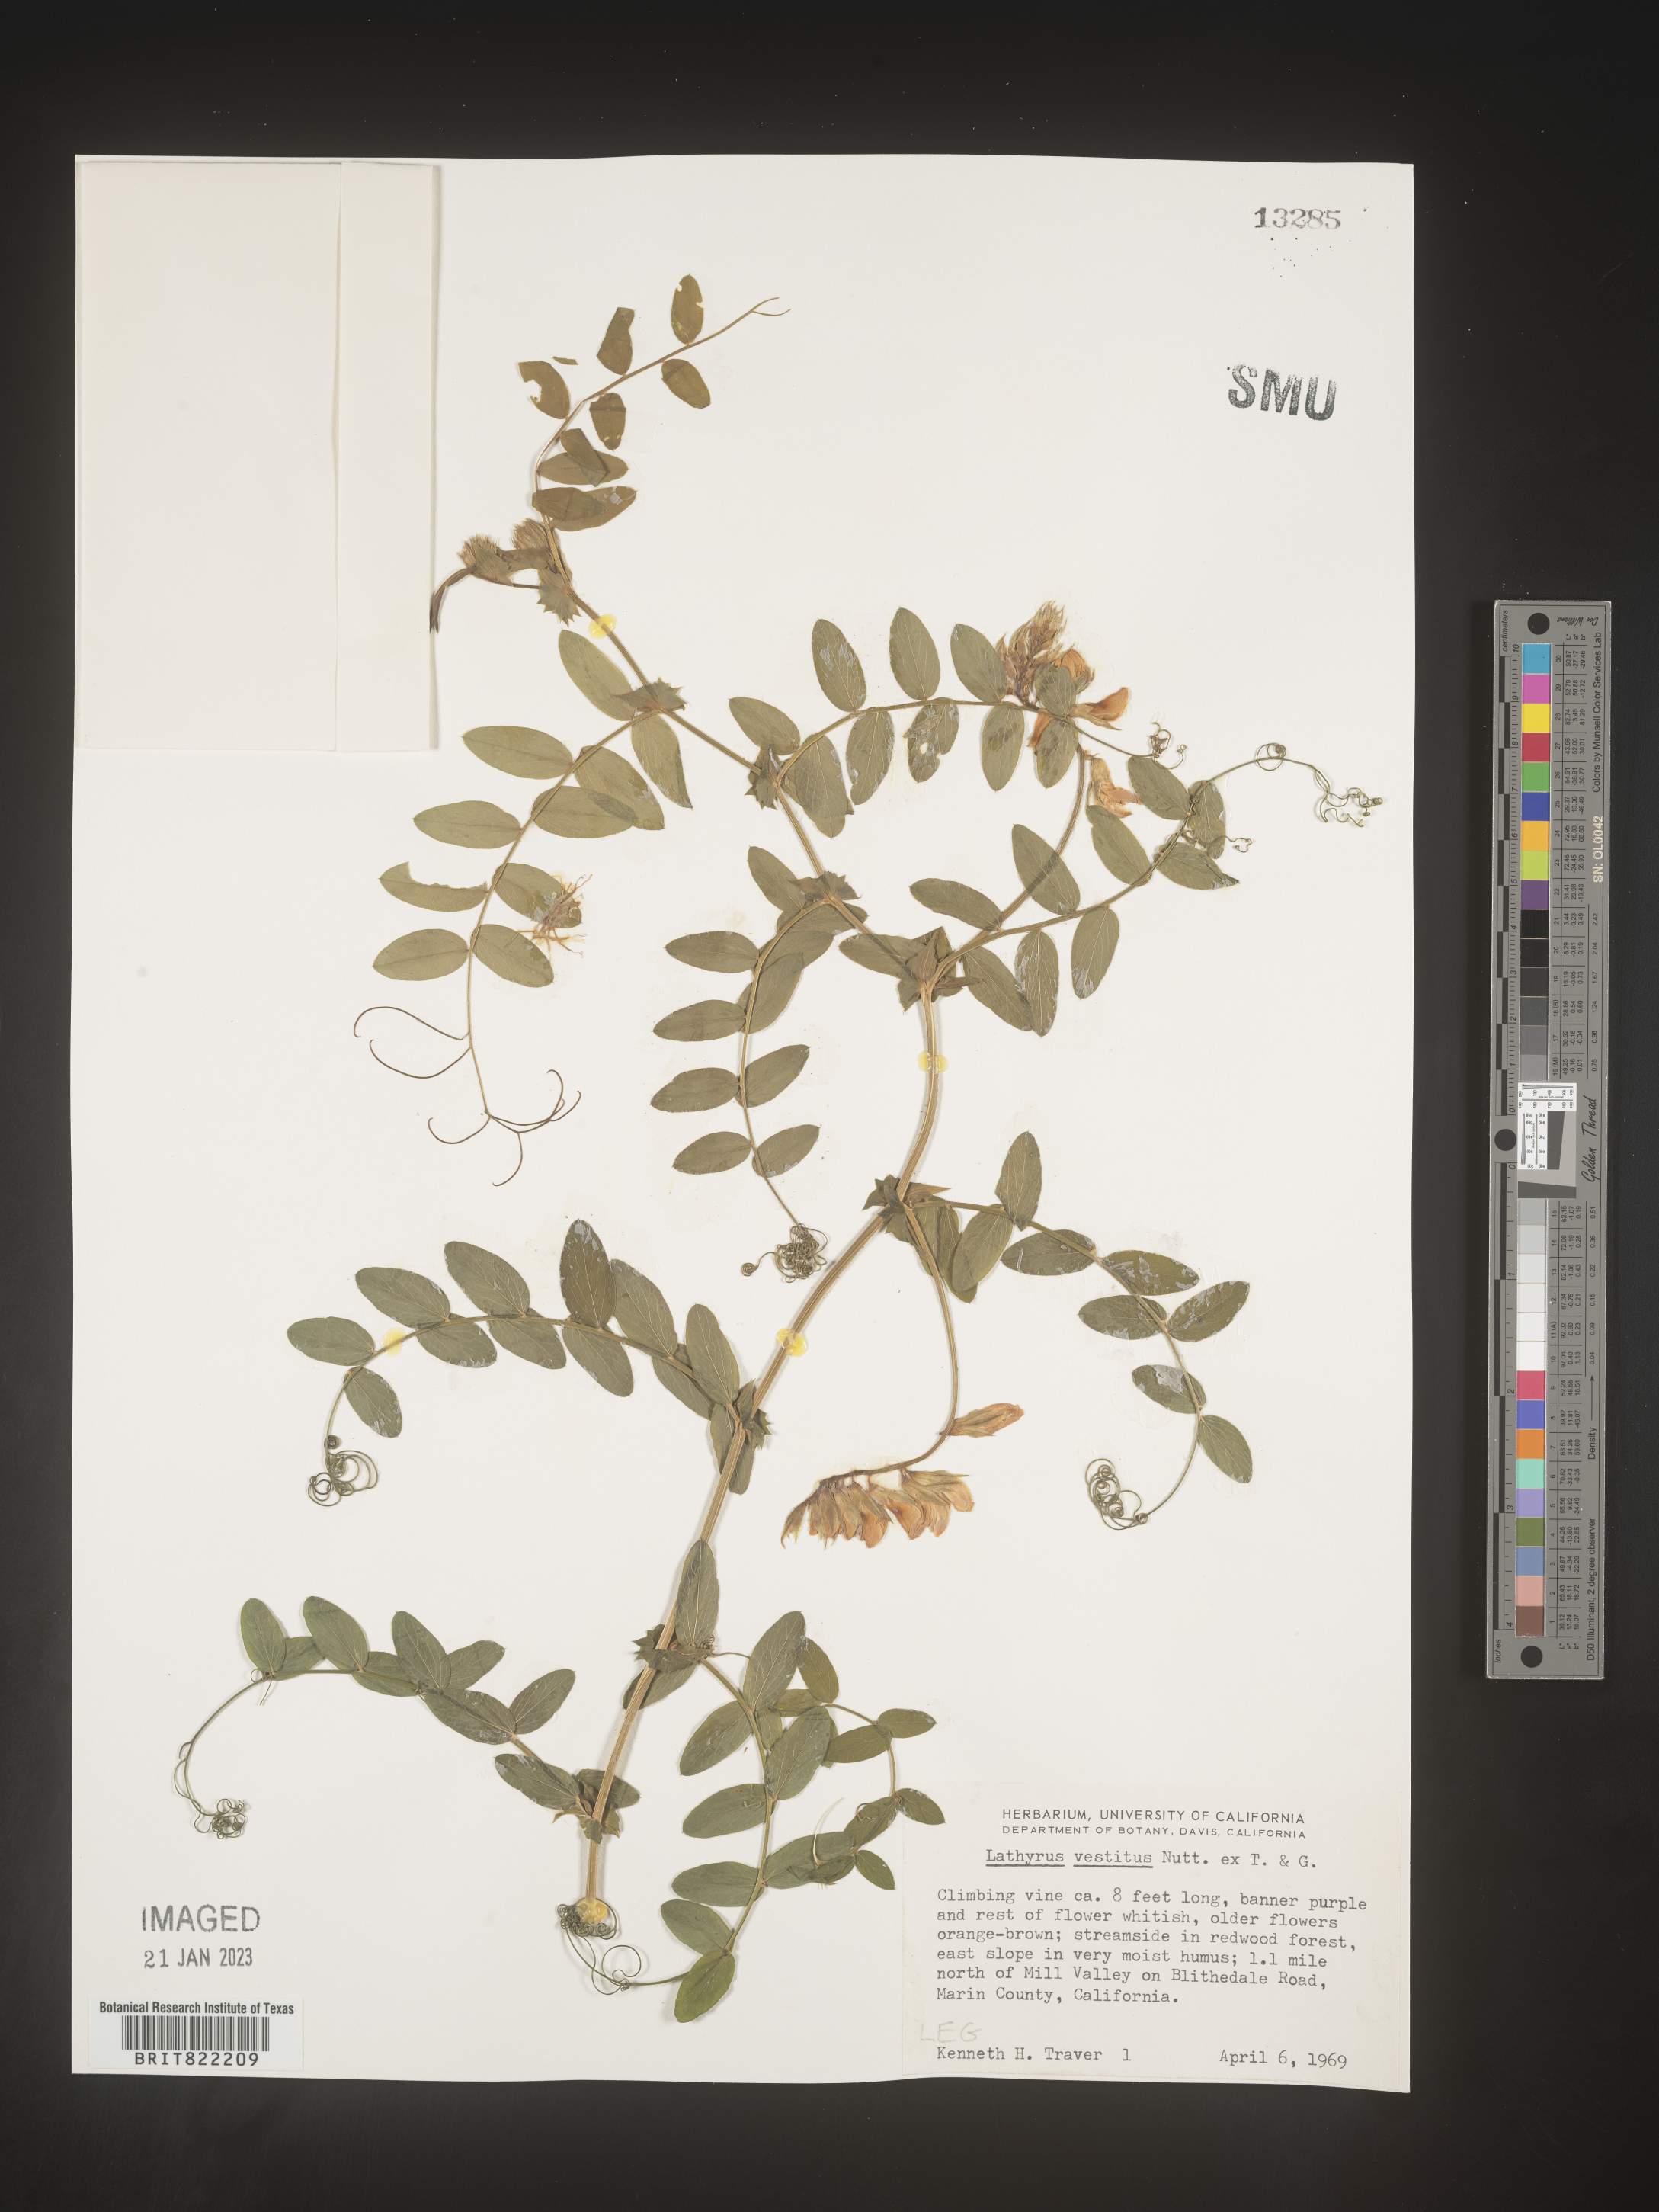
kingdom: Plantae
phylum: Tracheophyta
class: Magnoliopsida
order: Fabales
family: Fabaceae
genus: Lathyrus
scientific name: Lathyrus vestitus
